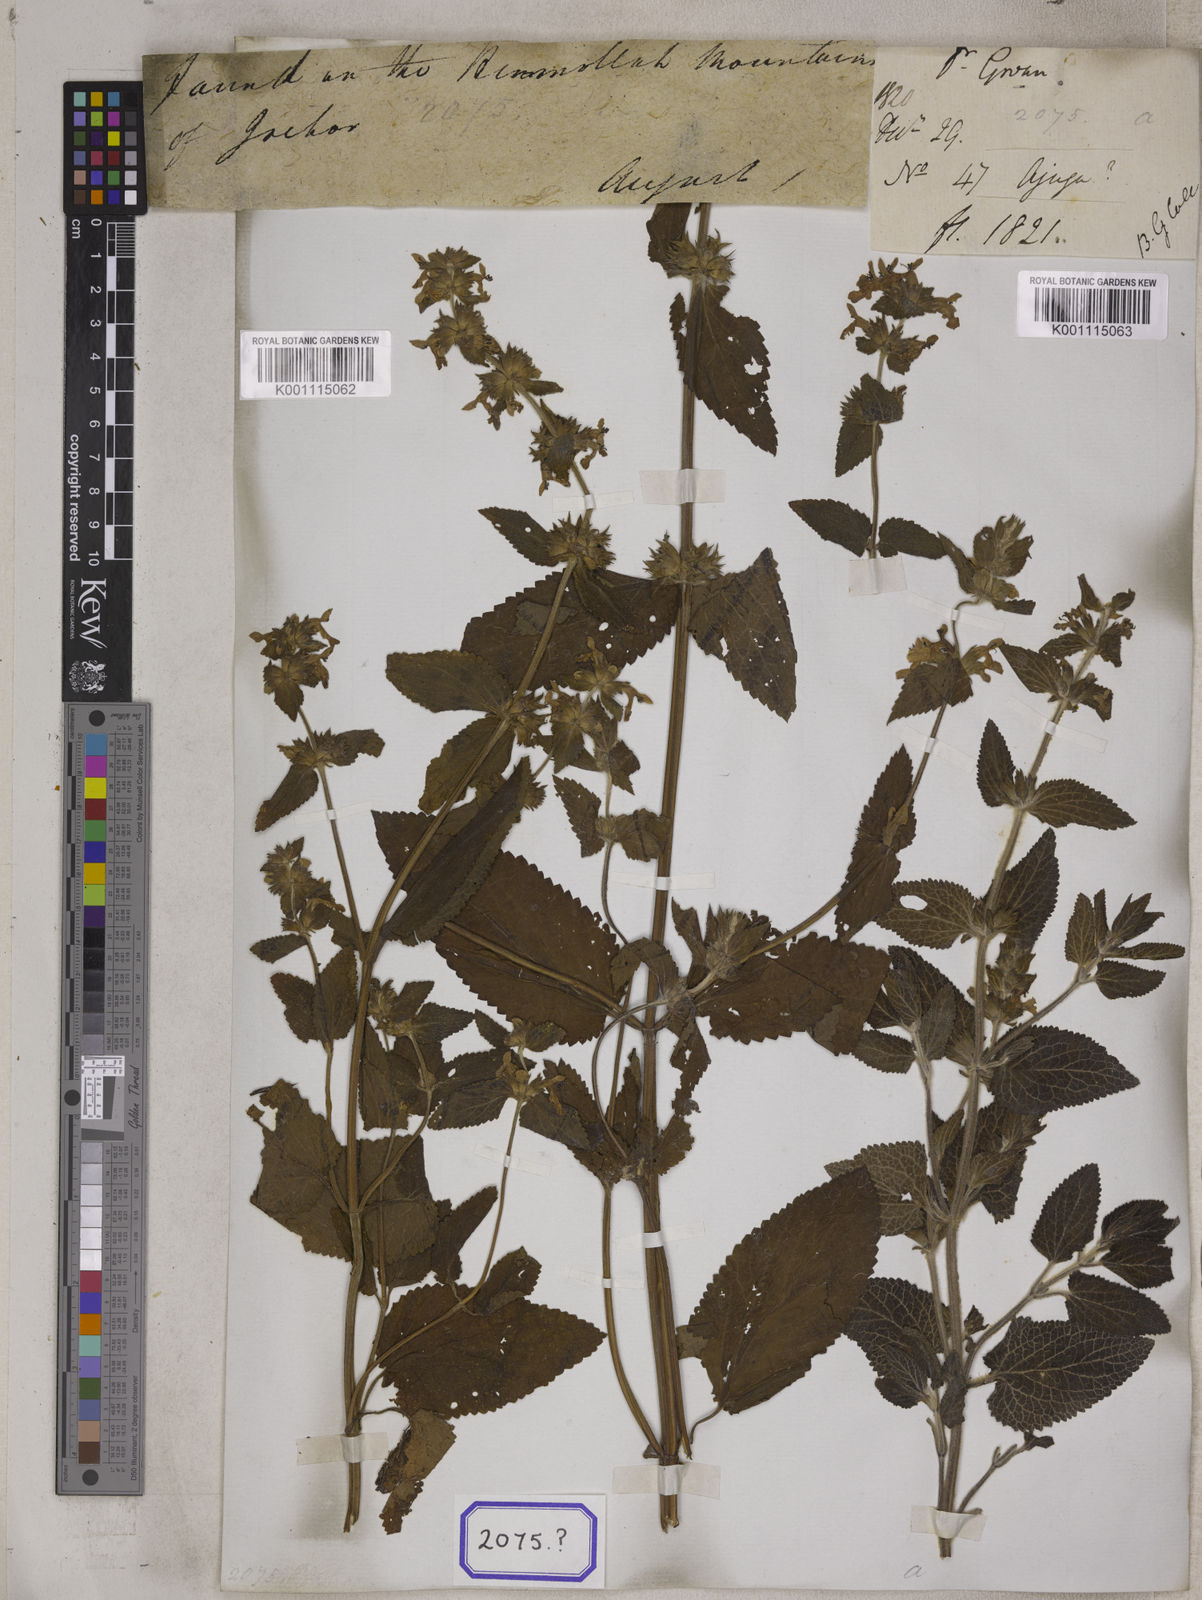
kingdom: Plantae
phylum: Tracheophyta
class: Magnoliopsida
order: Lamiales
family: Lamiaceae
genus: Stachys
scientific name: Stachys splendens
